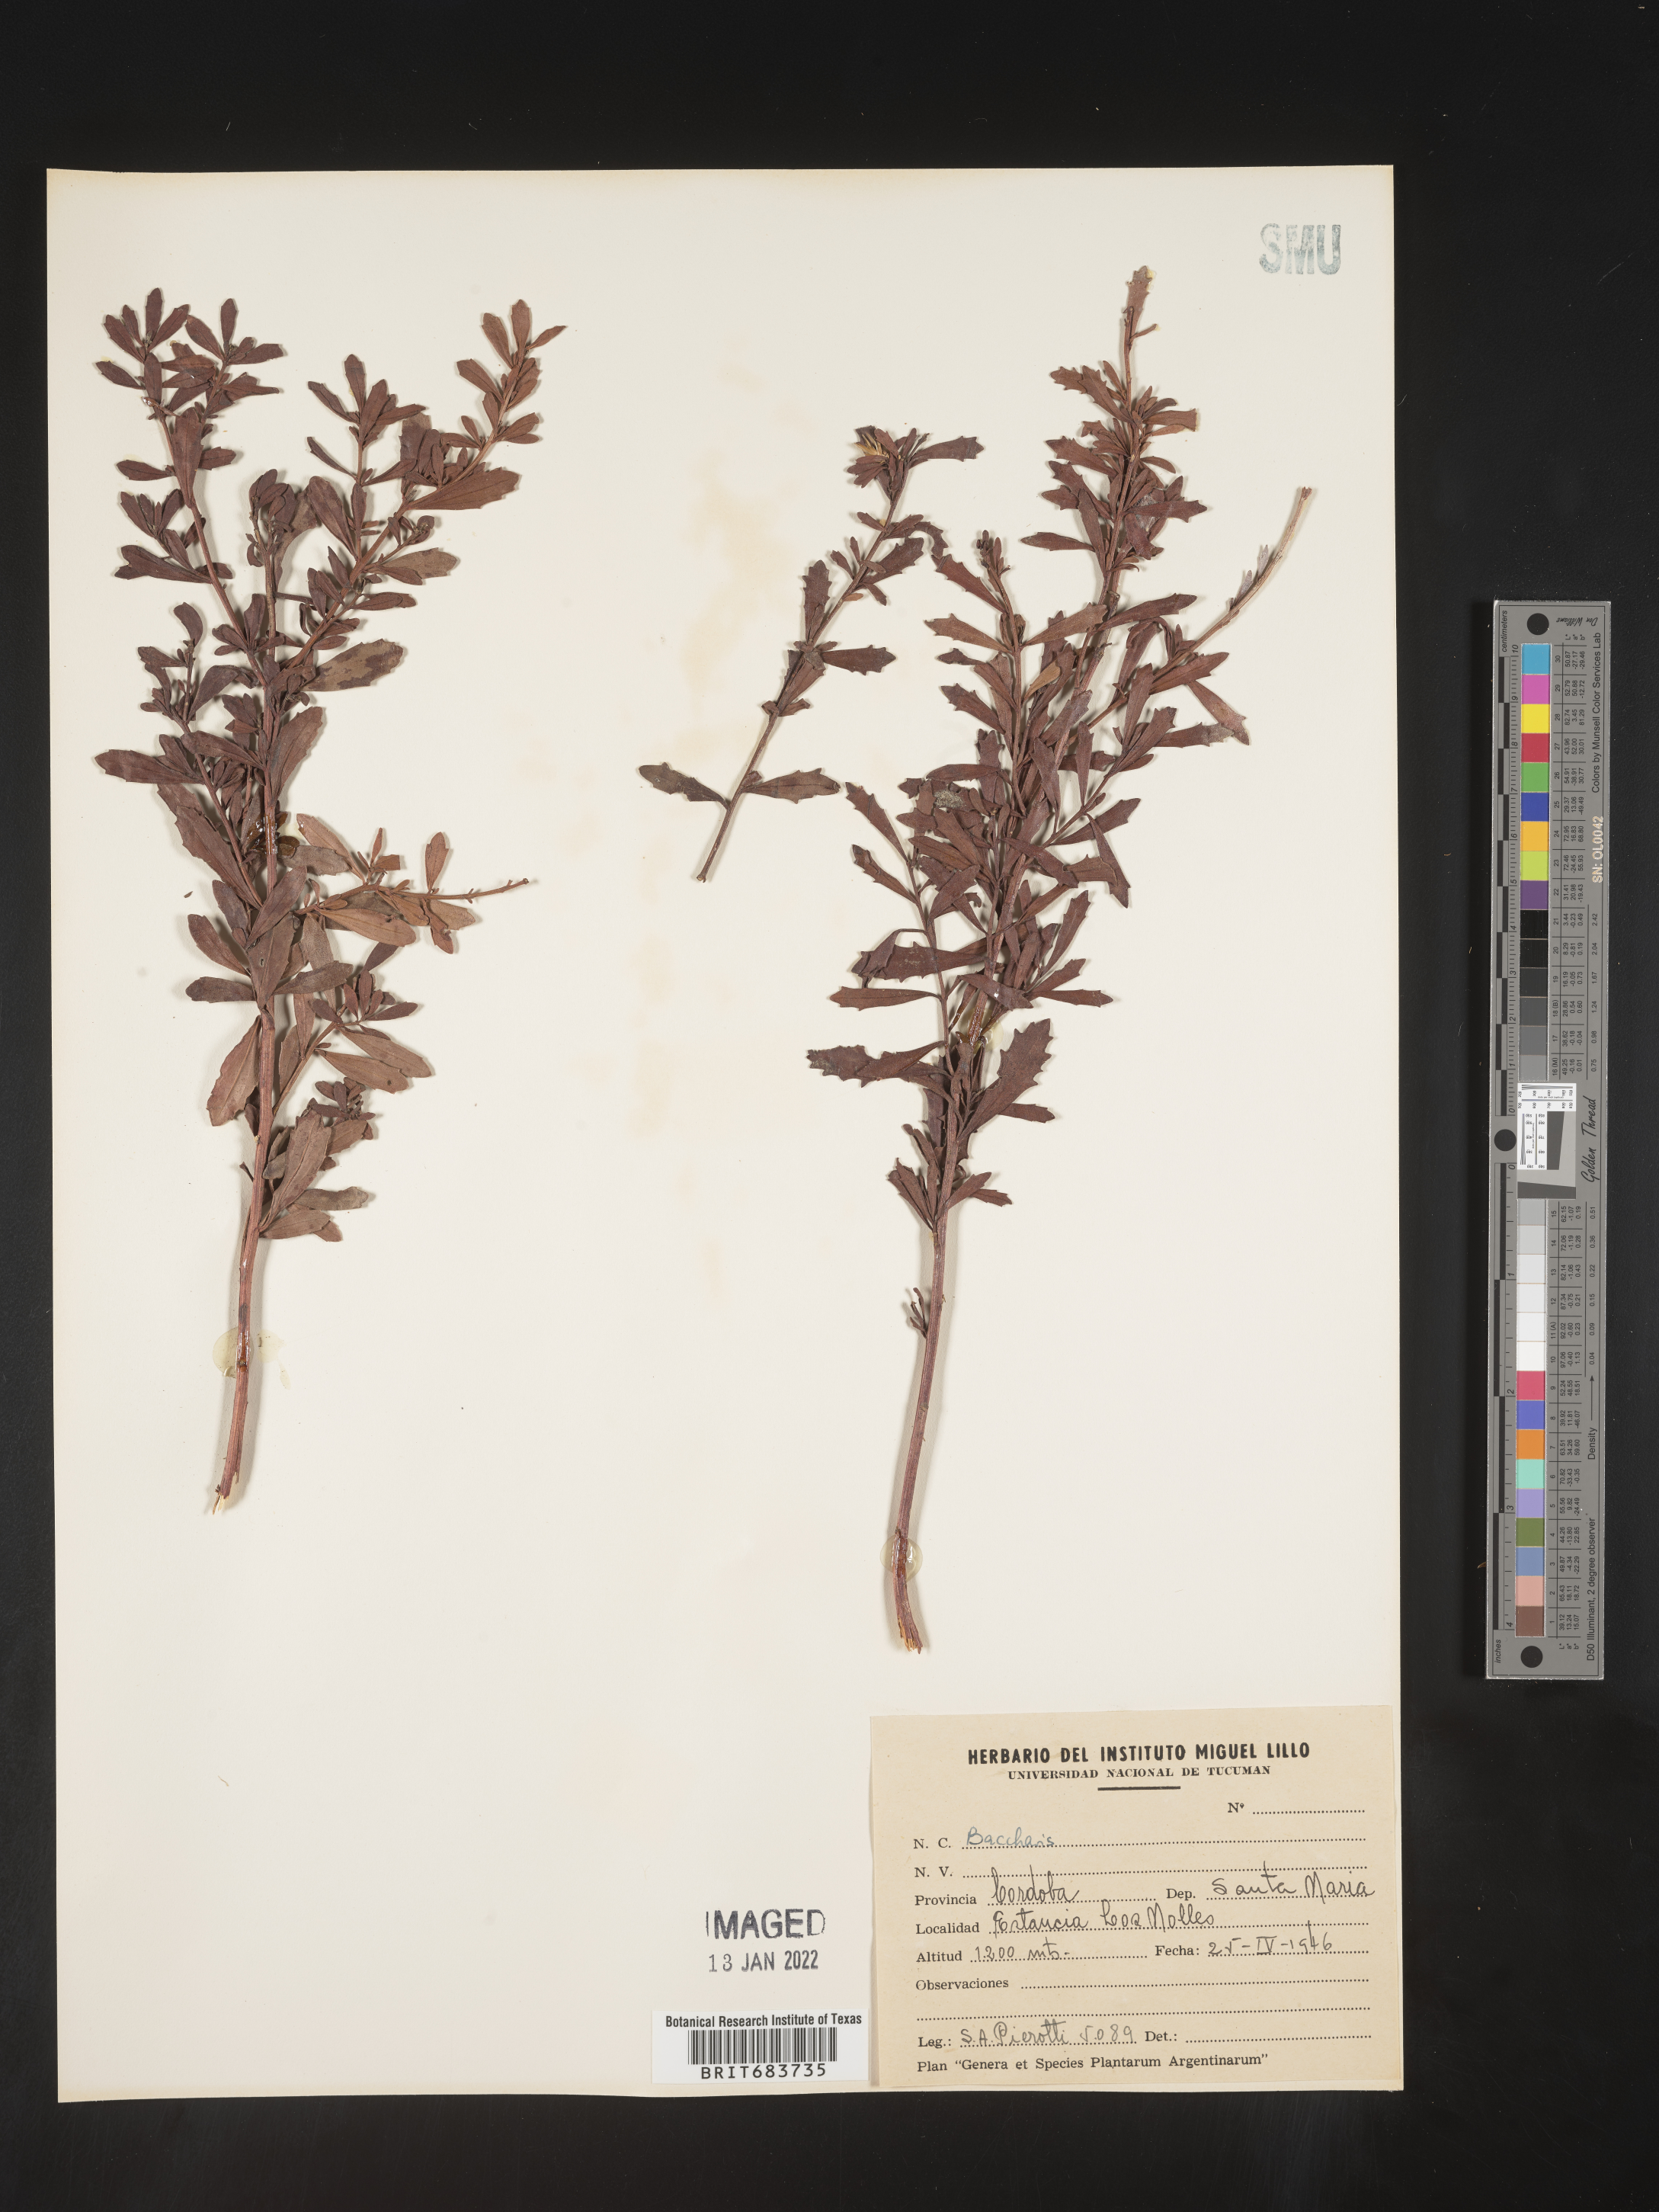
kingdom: Plantae
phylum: Tracheophyta
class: Magnoliopsida
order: Asterales
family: Asteraceae
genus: Baccharis
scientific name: Baccharis
